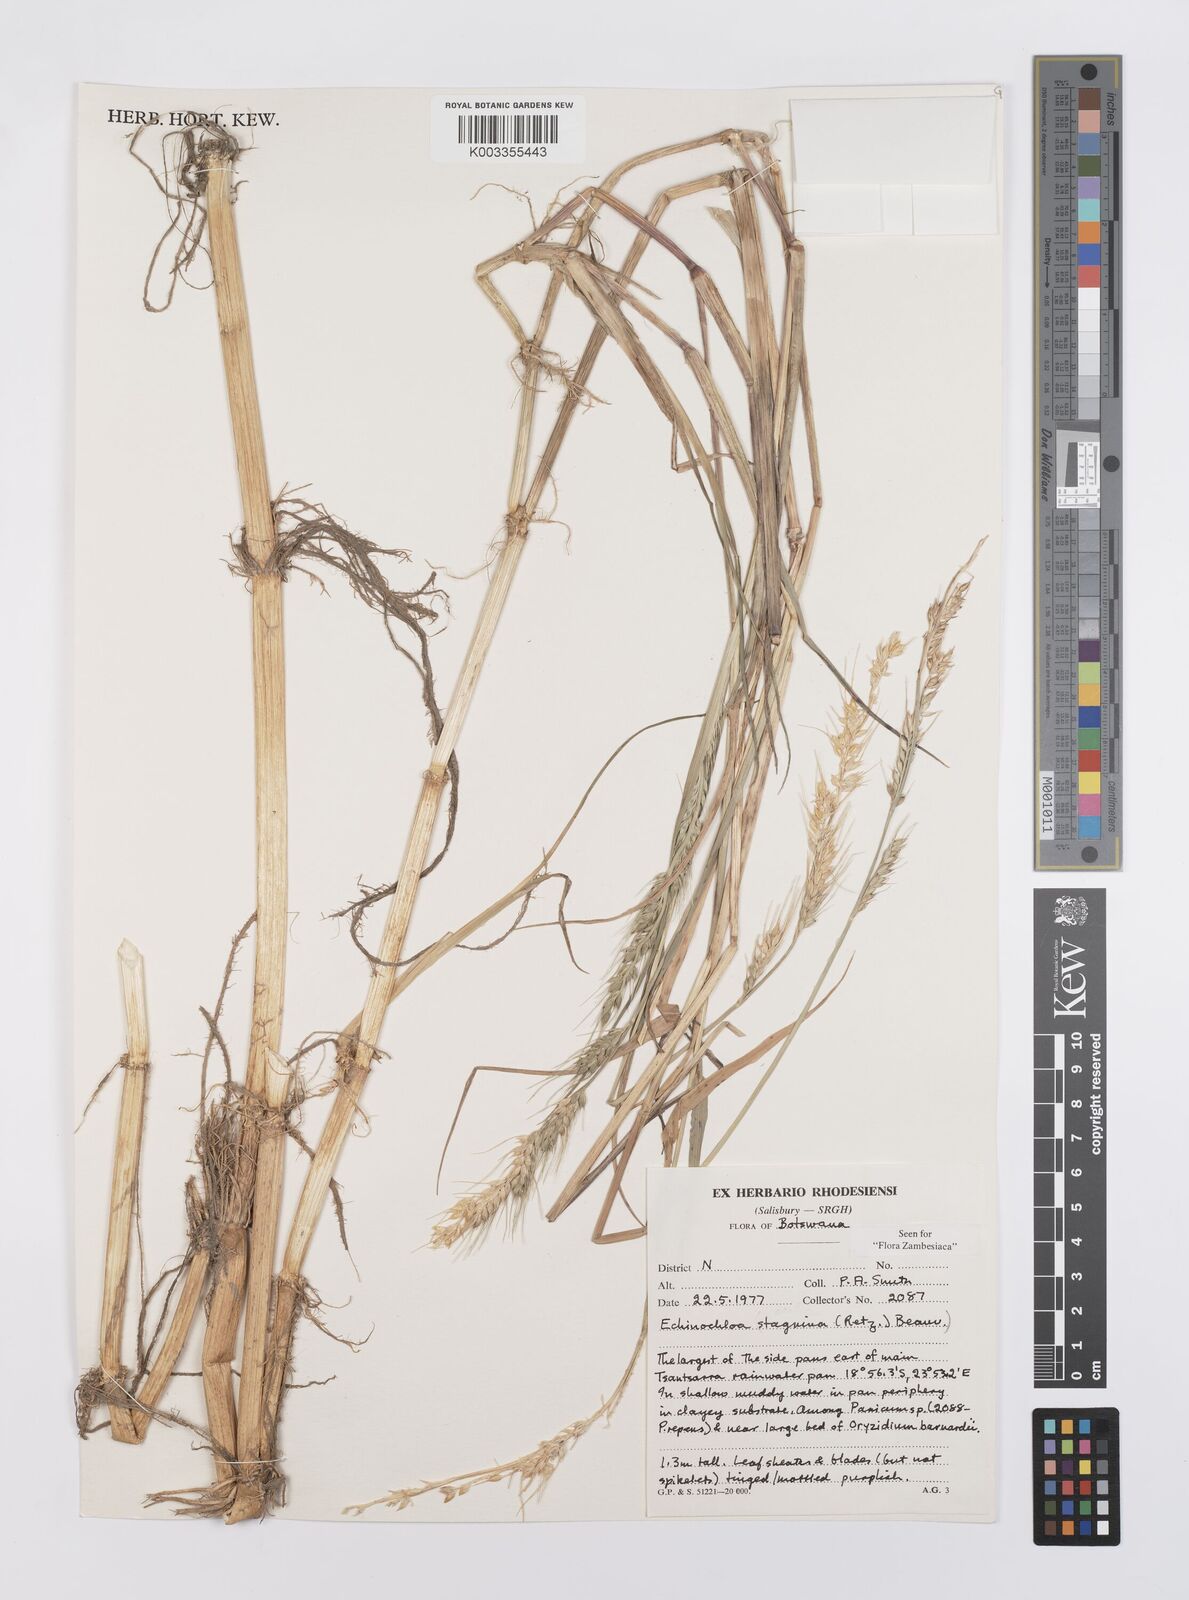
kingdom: Plantae
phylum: Tracheophyta
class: Liliopsida
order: Poales
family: Poaceae
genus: Echinochloa
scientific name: Echinochloa stagnina
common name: Burgu grass
